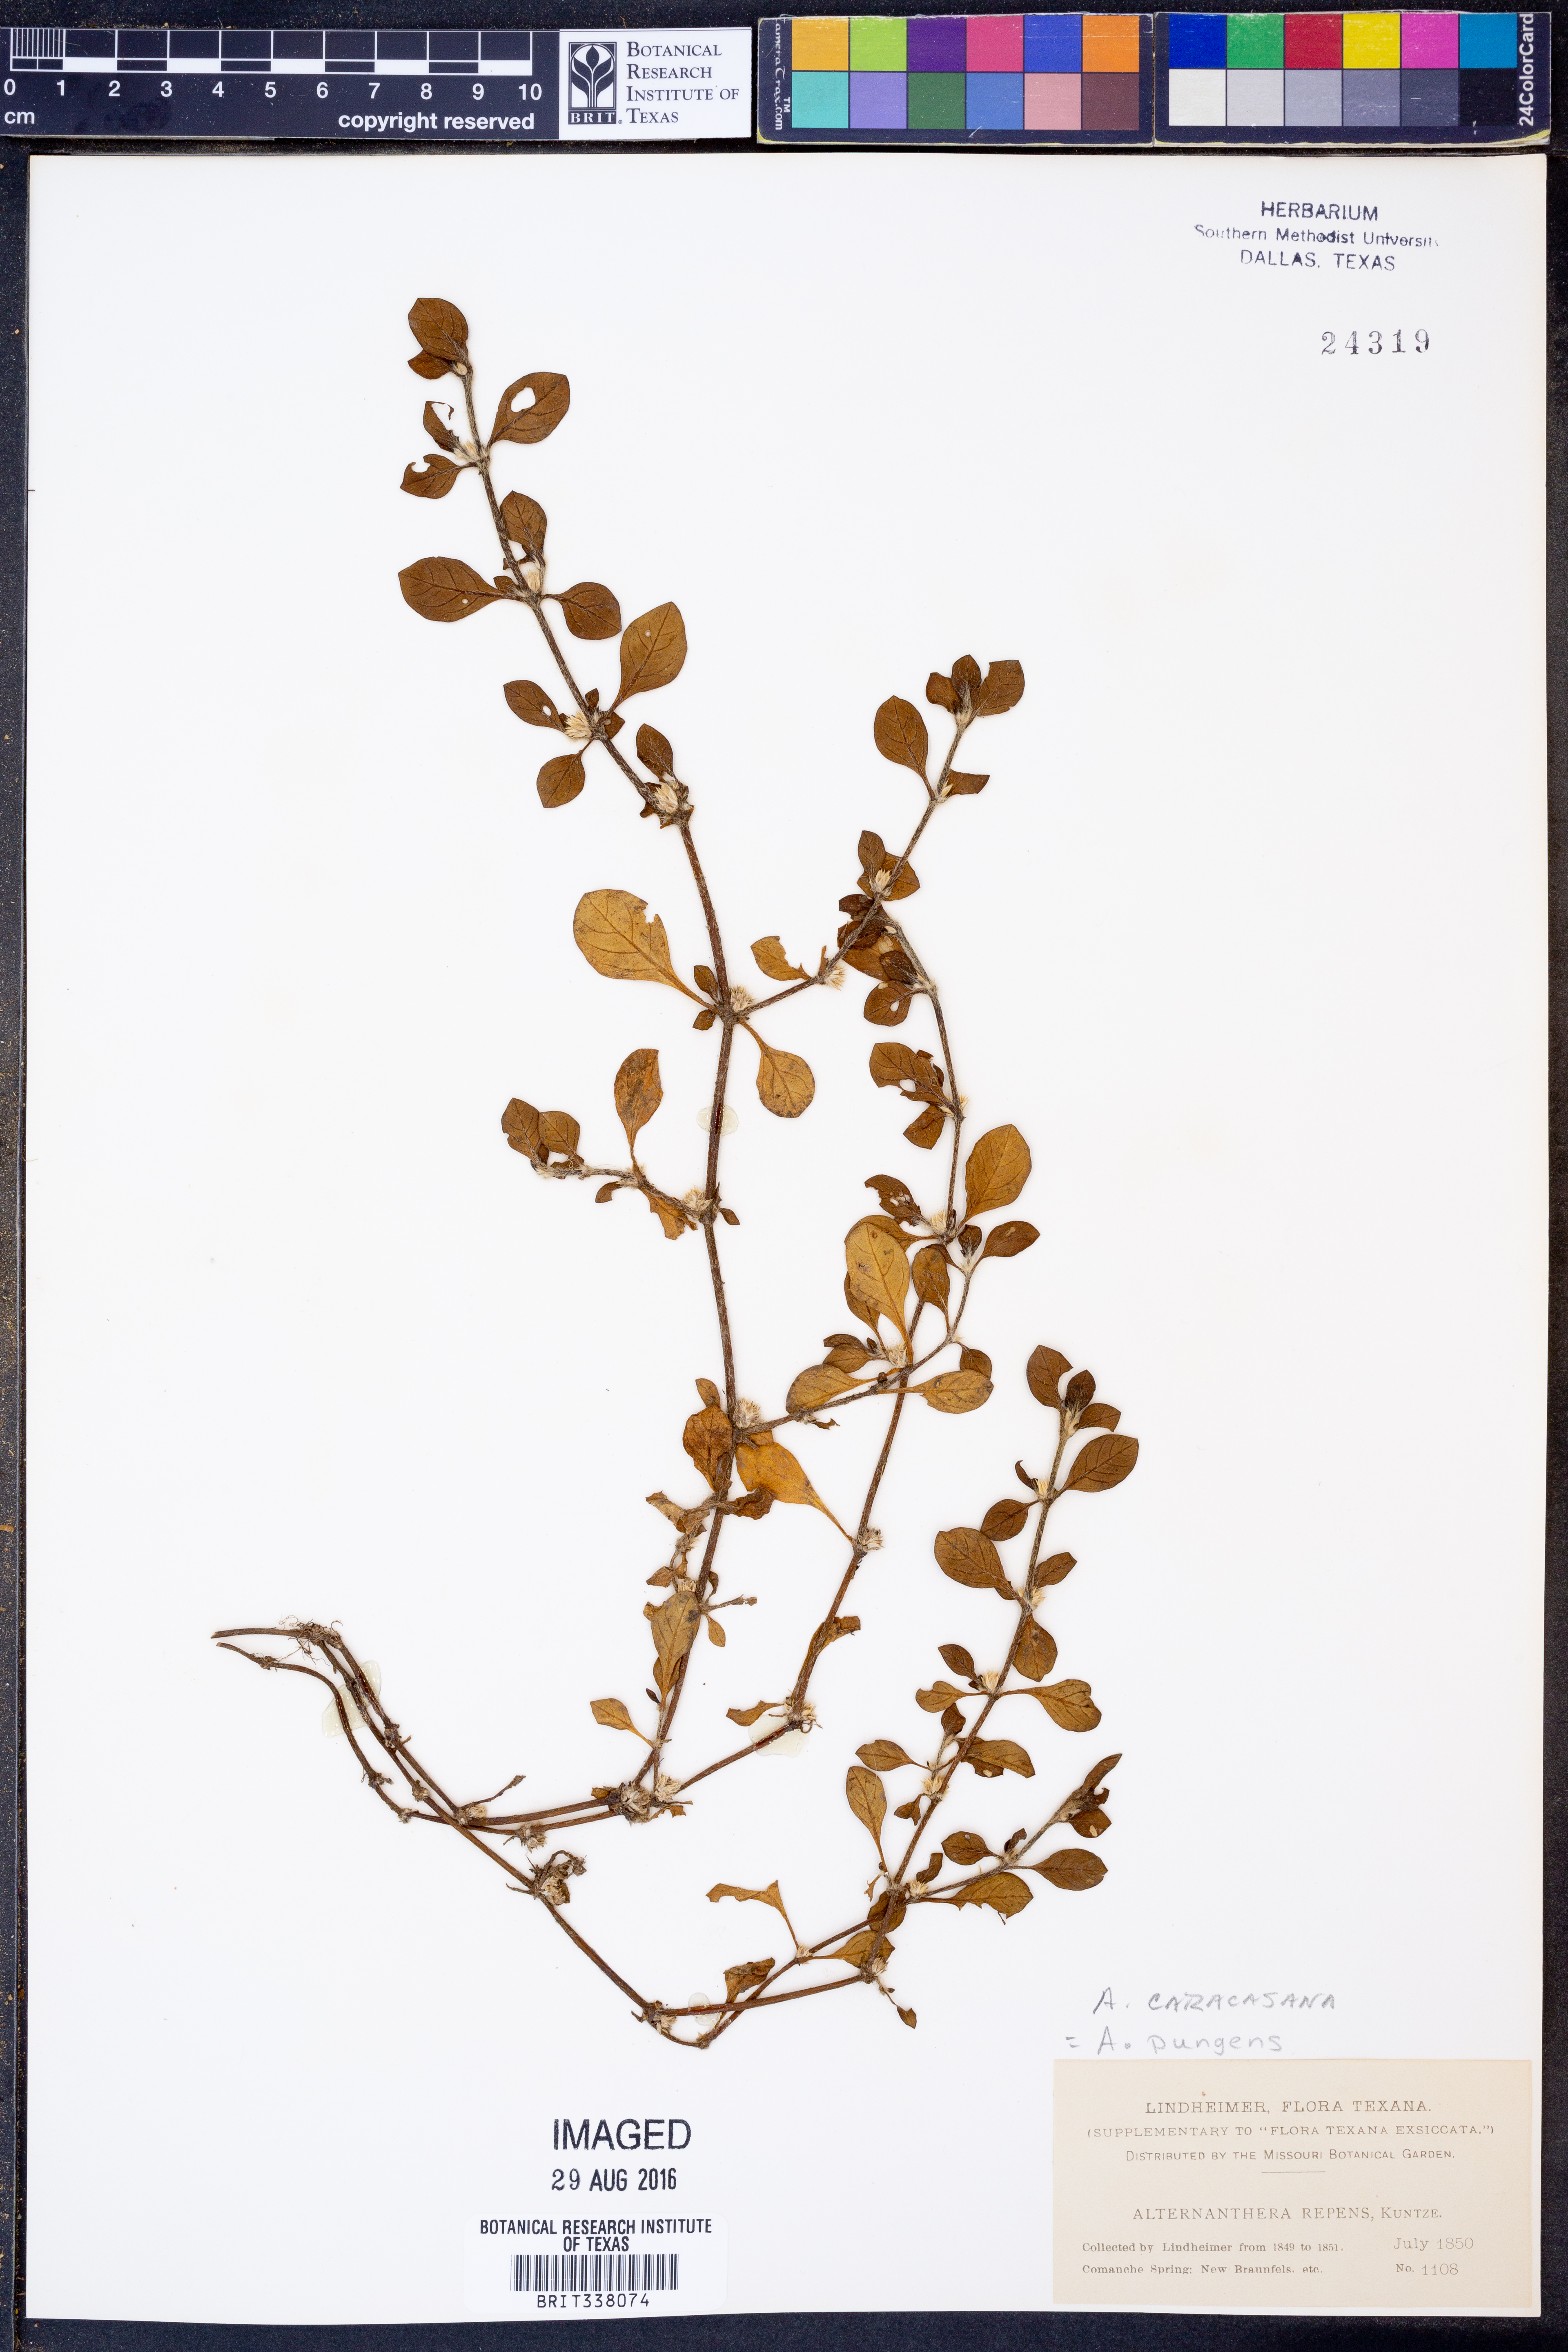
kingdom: Plantae
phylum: Tracheophyta
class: Magnoliopsida
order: Caryophyllales
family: Amaranthaceae
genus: Alternanthera
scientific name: Alternanthera caracasana
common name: Washerwoman
